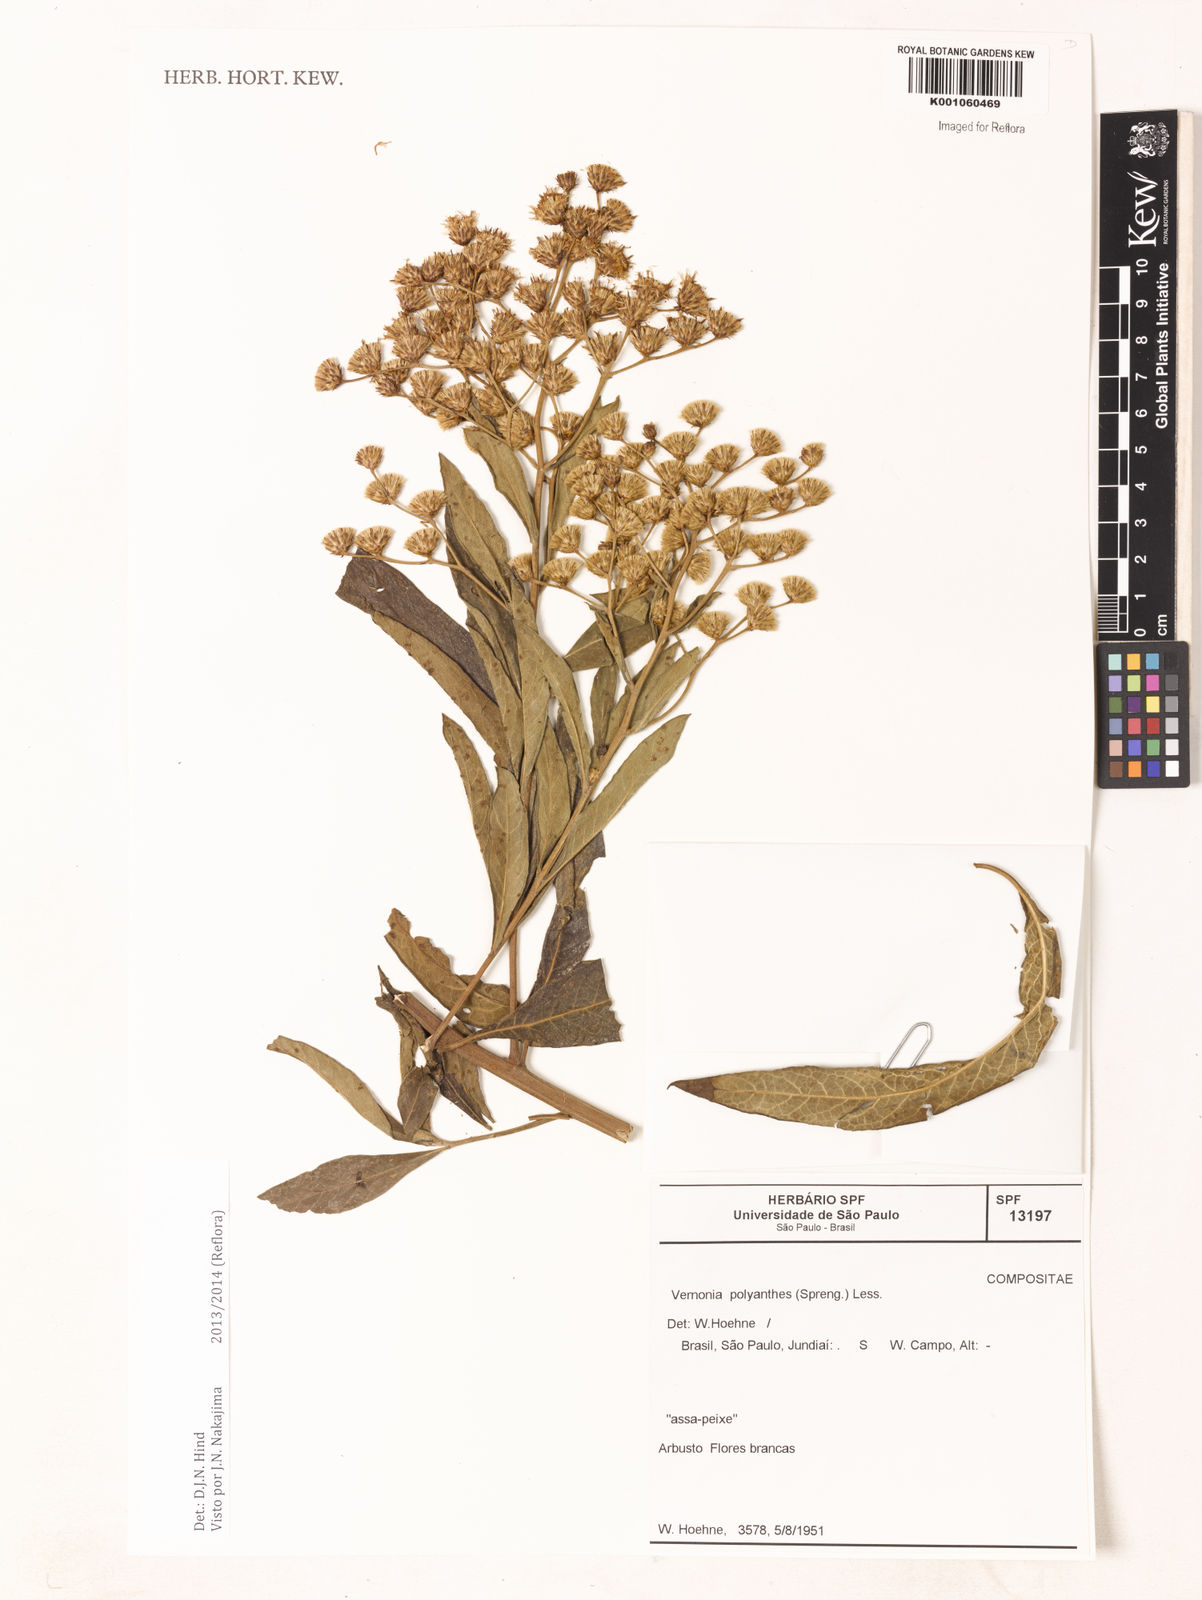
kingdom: Plantae
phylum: Tracheophyta
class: Magnoliopsida
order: Asterales
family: Asteraceae
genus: Vernonanthura
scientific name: Vernonanthura polyanthes
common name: Tree aster
